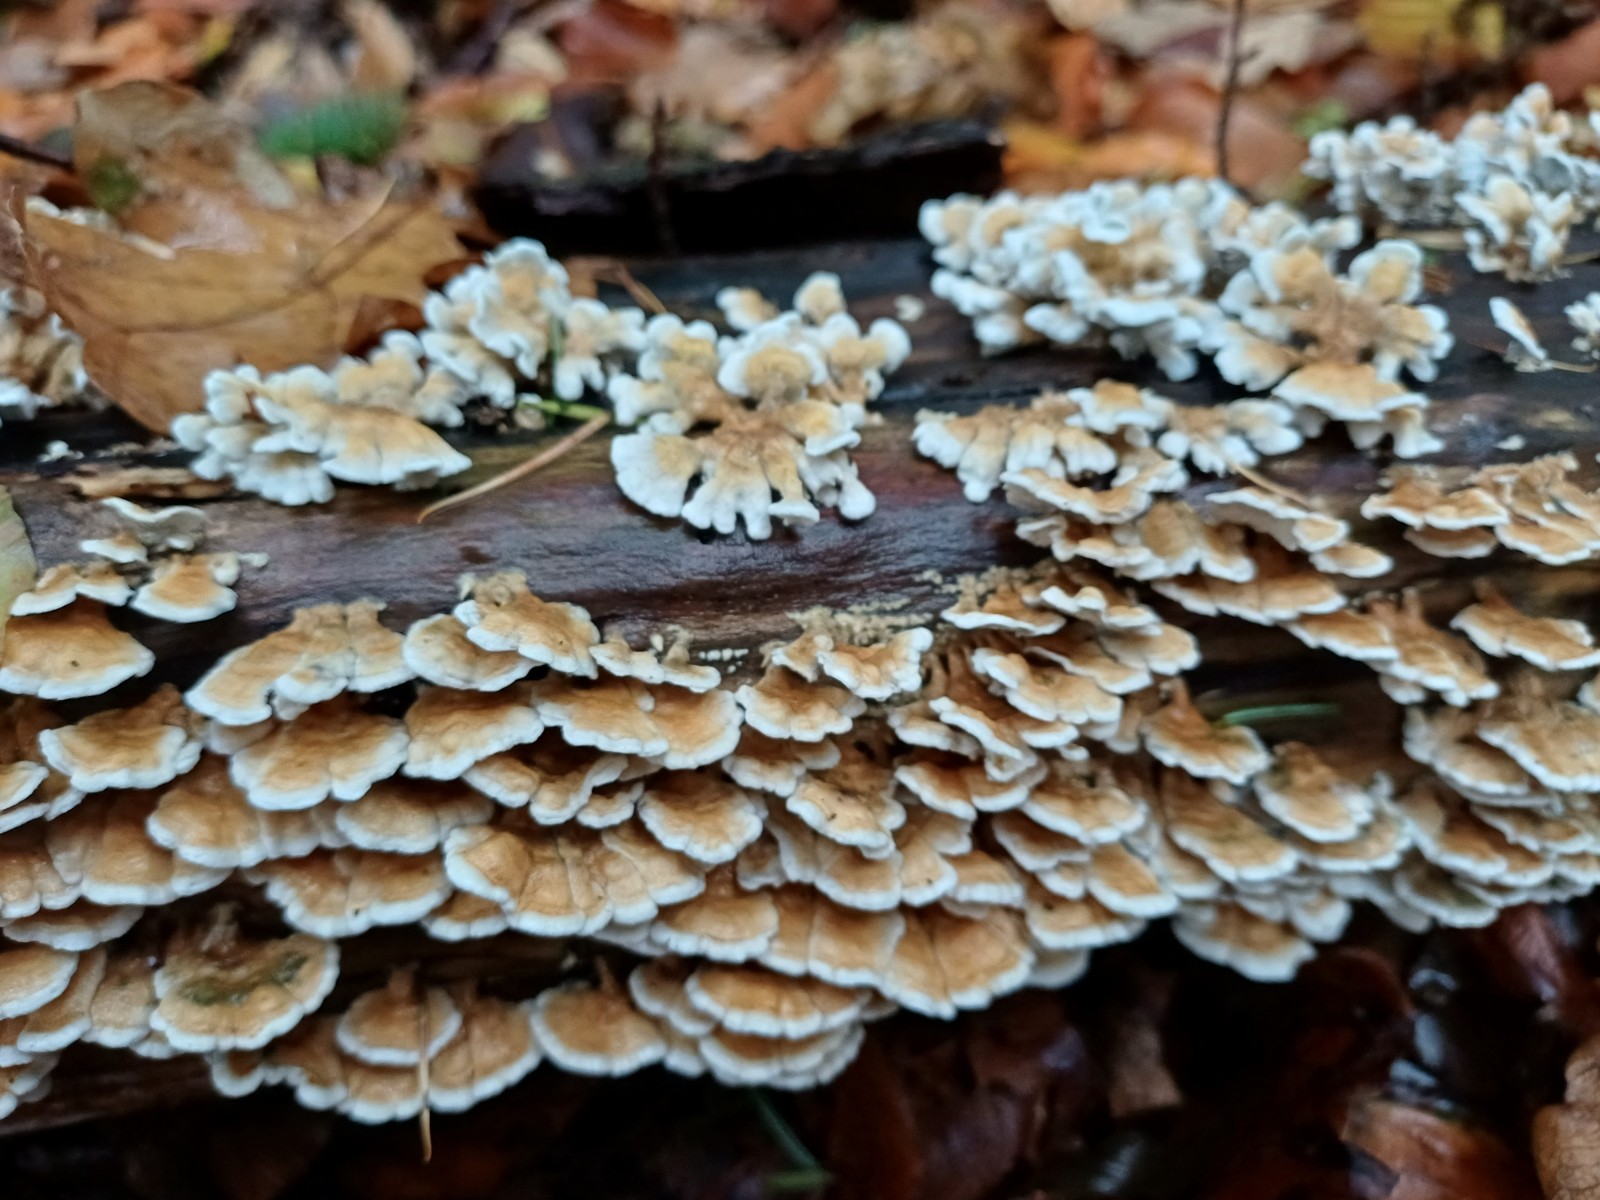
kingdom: Fungi
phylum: Basidiomycota
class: Agaricomycetes
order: Amylocorticiales
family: Amylocorticiaceae
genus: Plicaturopsis
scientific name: Plicaturopsis crispa
